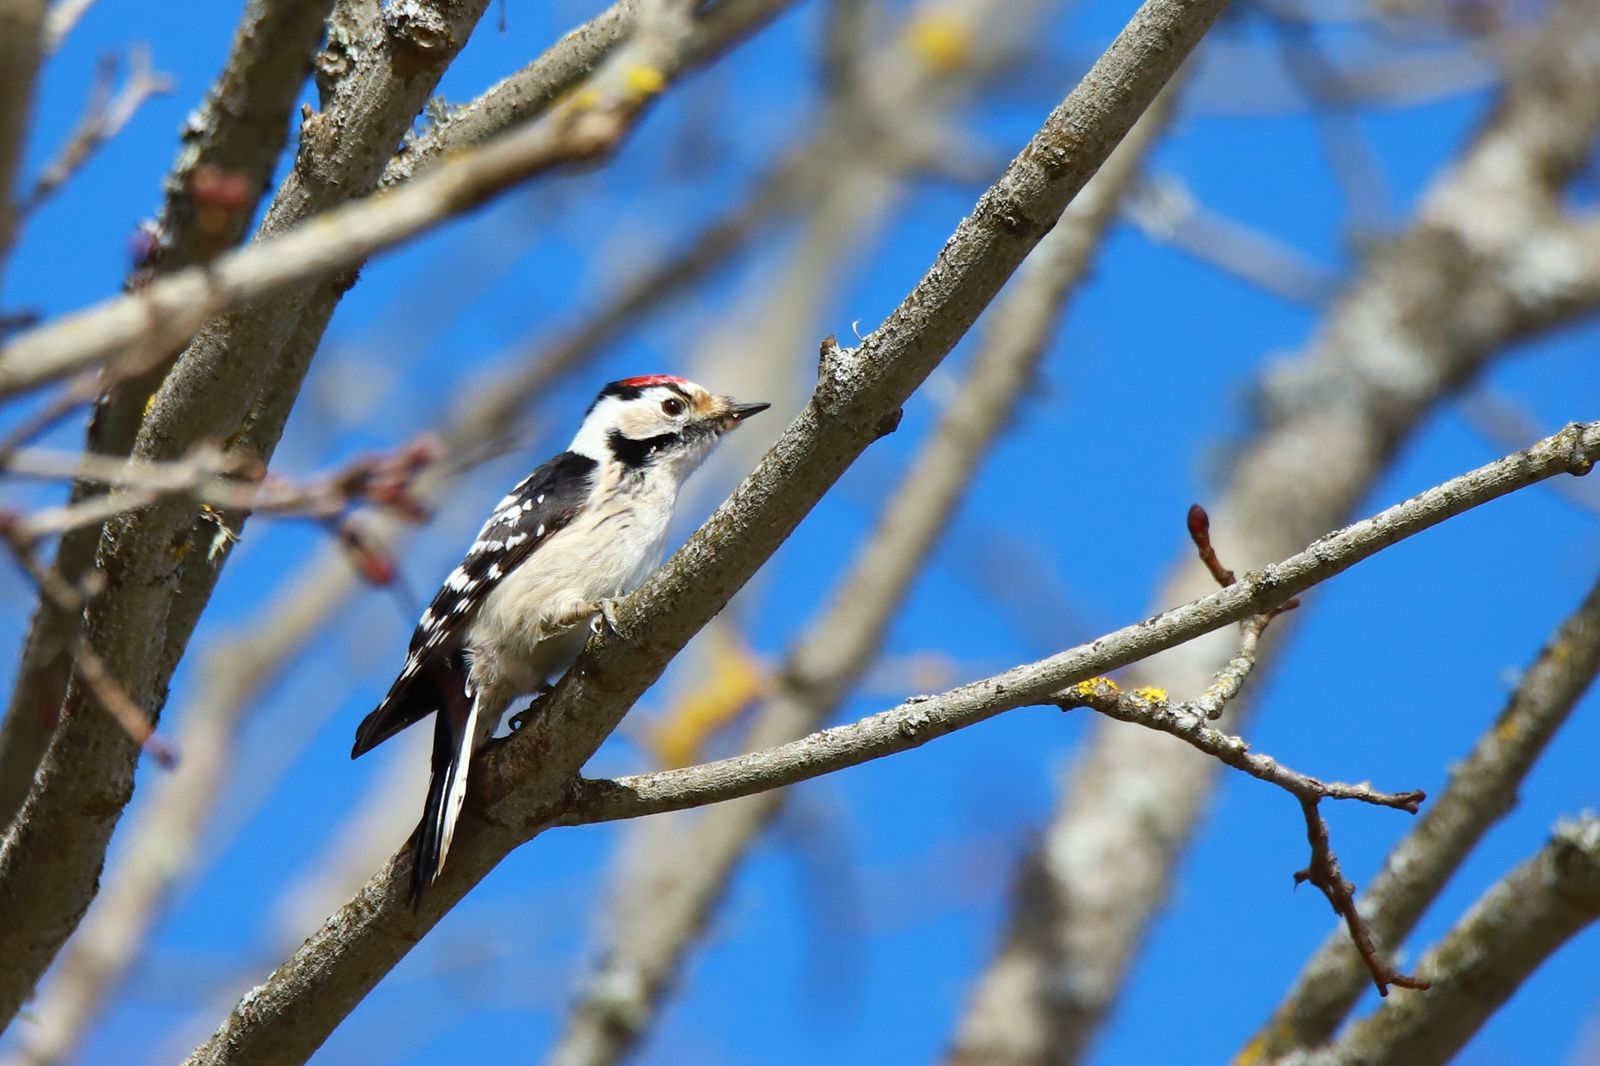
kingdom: Animalia
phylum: Chordata
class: Aves
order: Piciformes
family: Picidae
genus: Dryobates
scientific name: Dryobates minor
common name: Lesser spotted woodpecker
